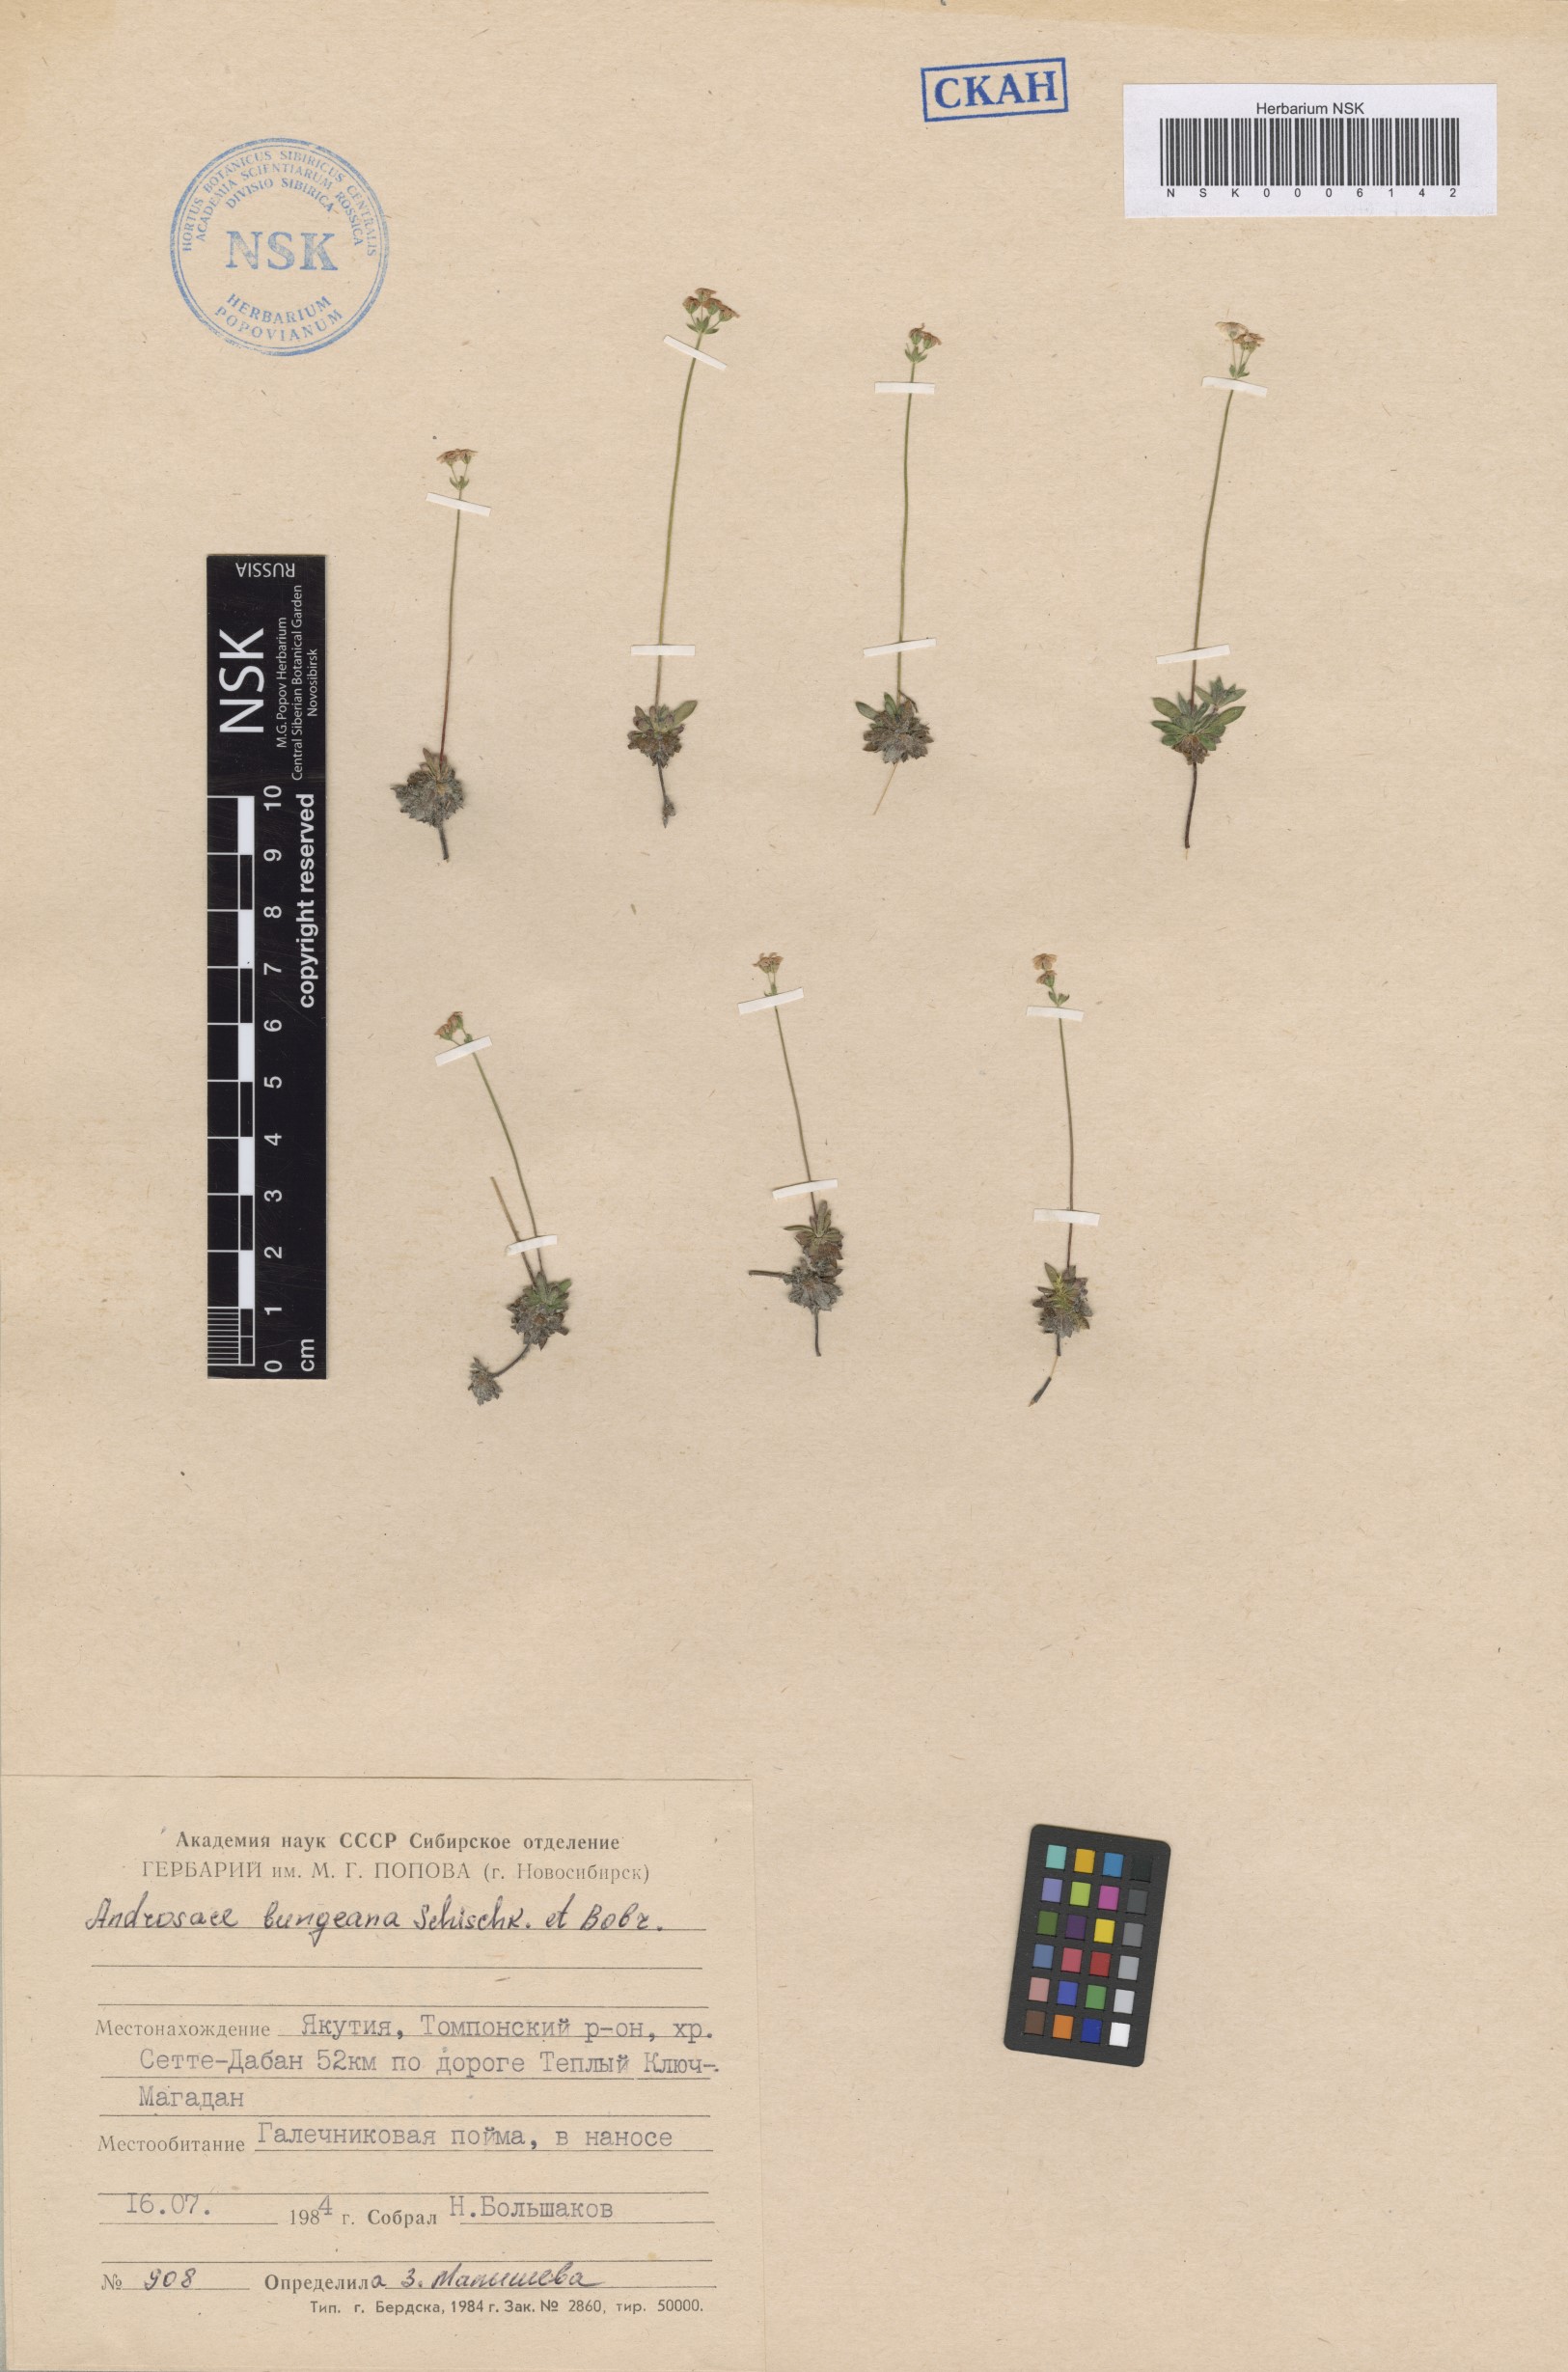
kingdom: Plantae
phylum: Tracheophyta
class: Magnoliopsida
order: Ericales
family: Primulaceae
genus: Androsace
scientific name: Androsace bungeana
